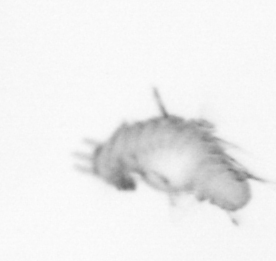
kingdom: Animalia
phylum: Annelida
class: Polychaeta
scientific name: Polychaeta
